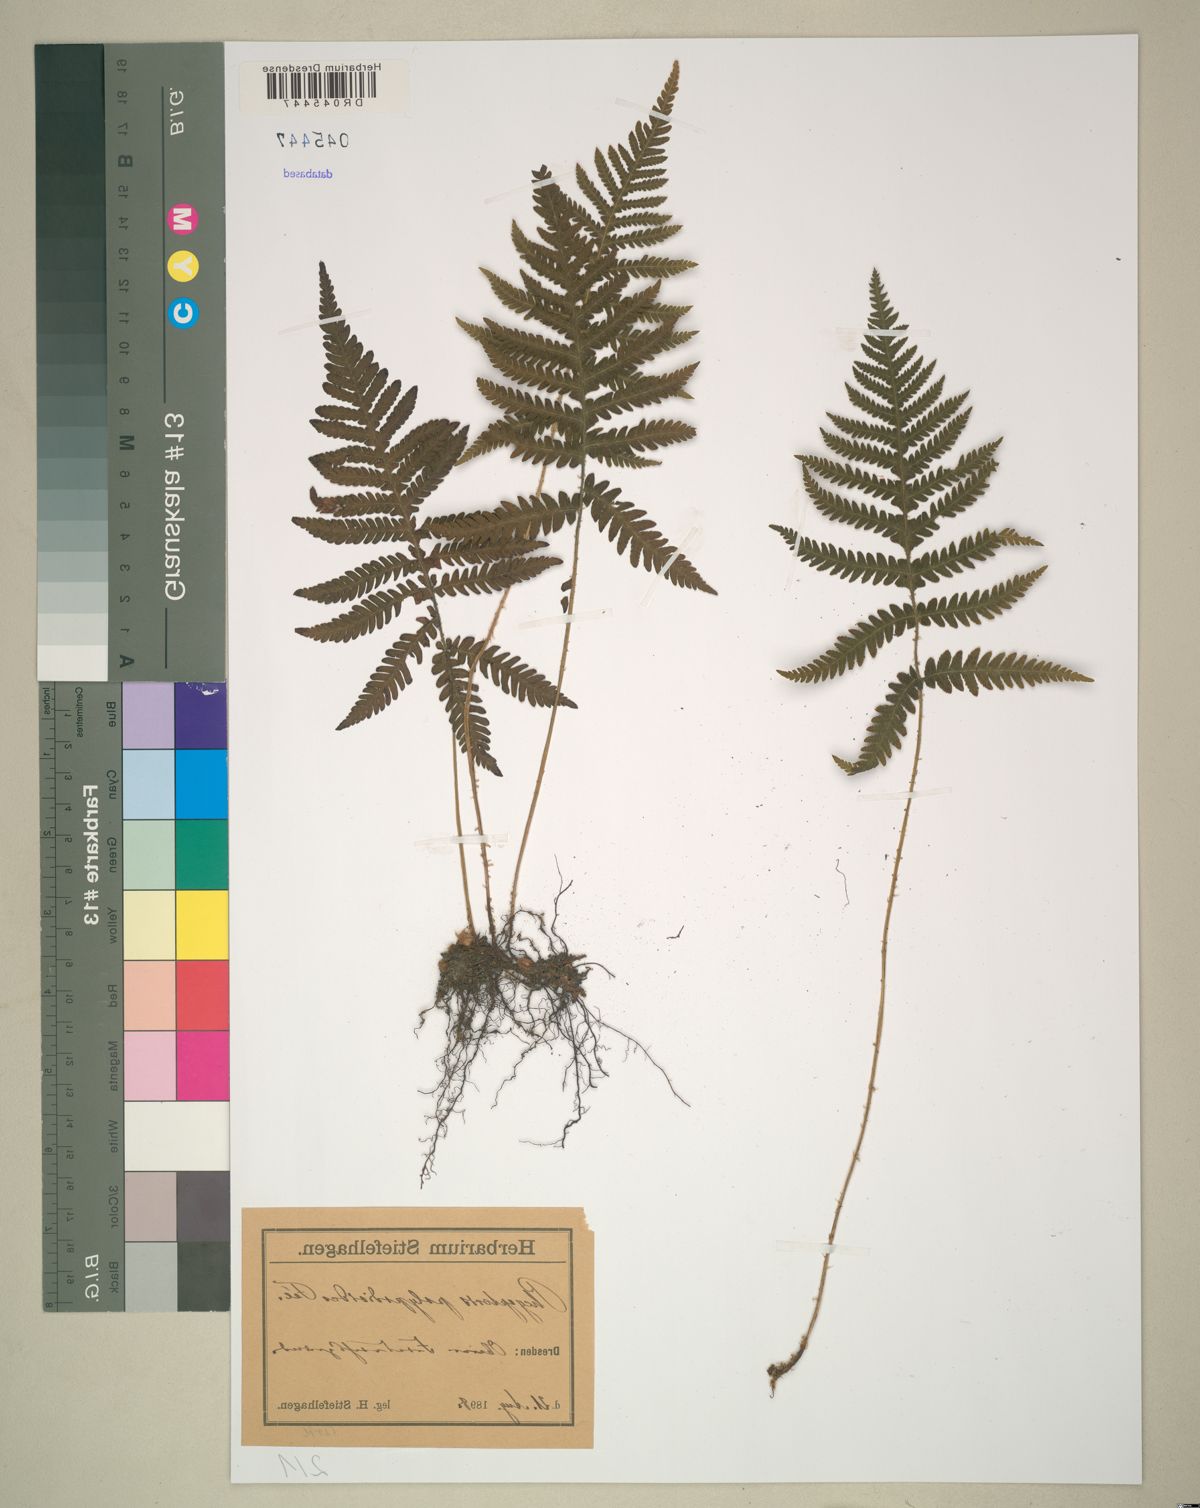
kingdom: Plantae
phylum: Tracheophyta
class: Polypodiopsida
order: Polypodiales
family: Thelypteridaceae
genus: Phegopteris
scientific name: Phegopteris connectilis
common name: Beech fern
